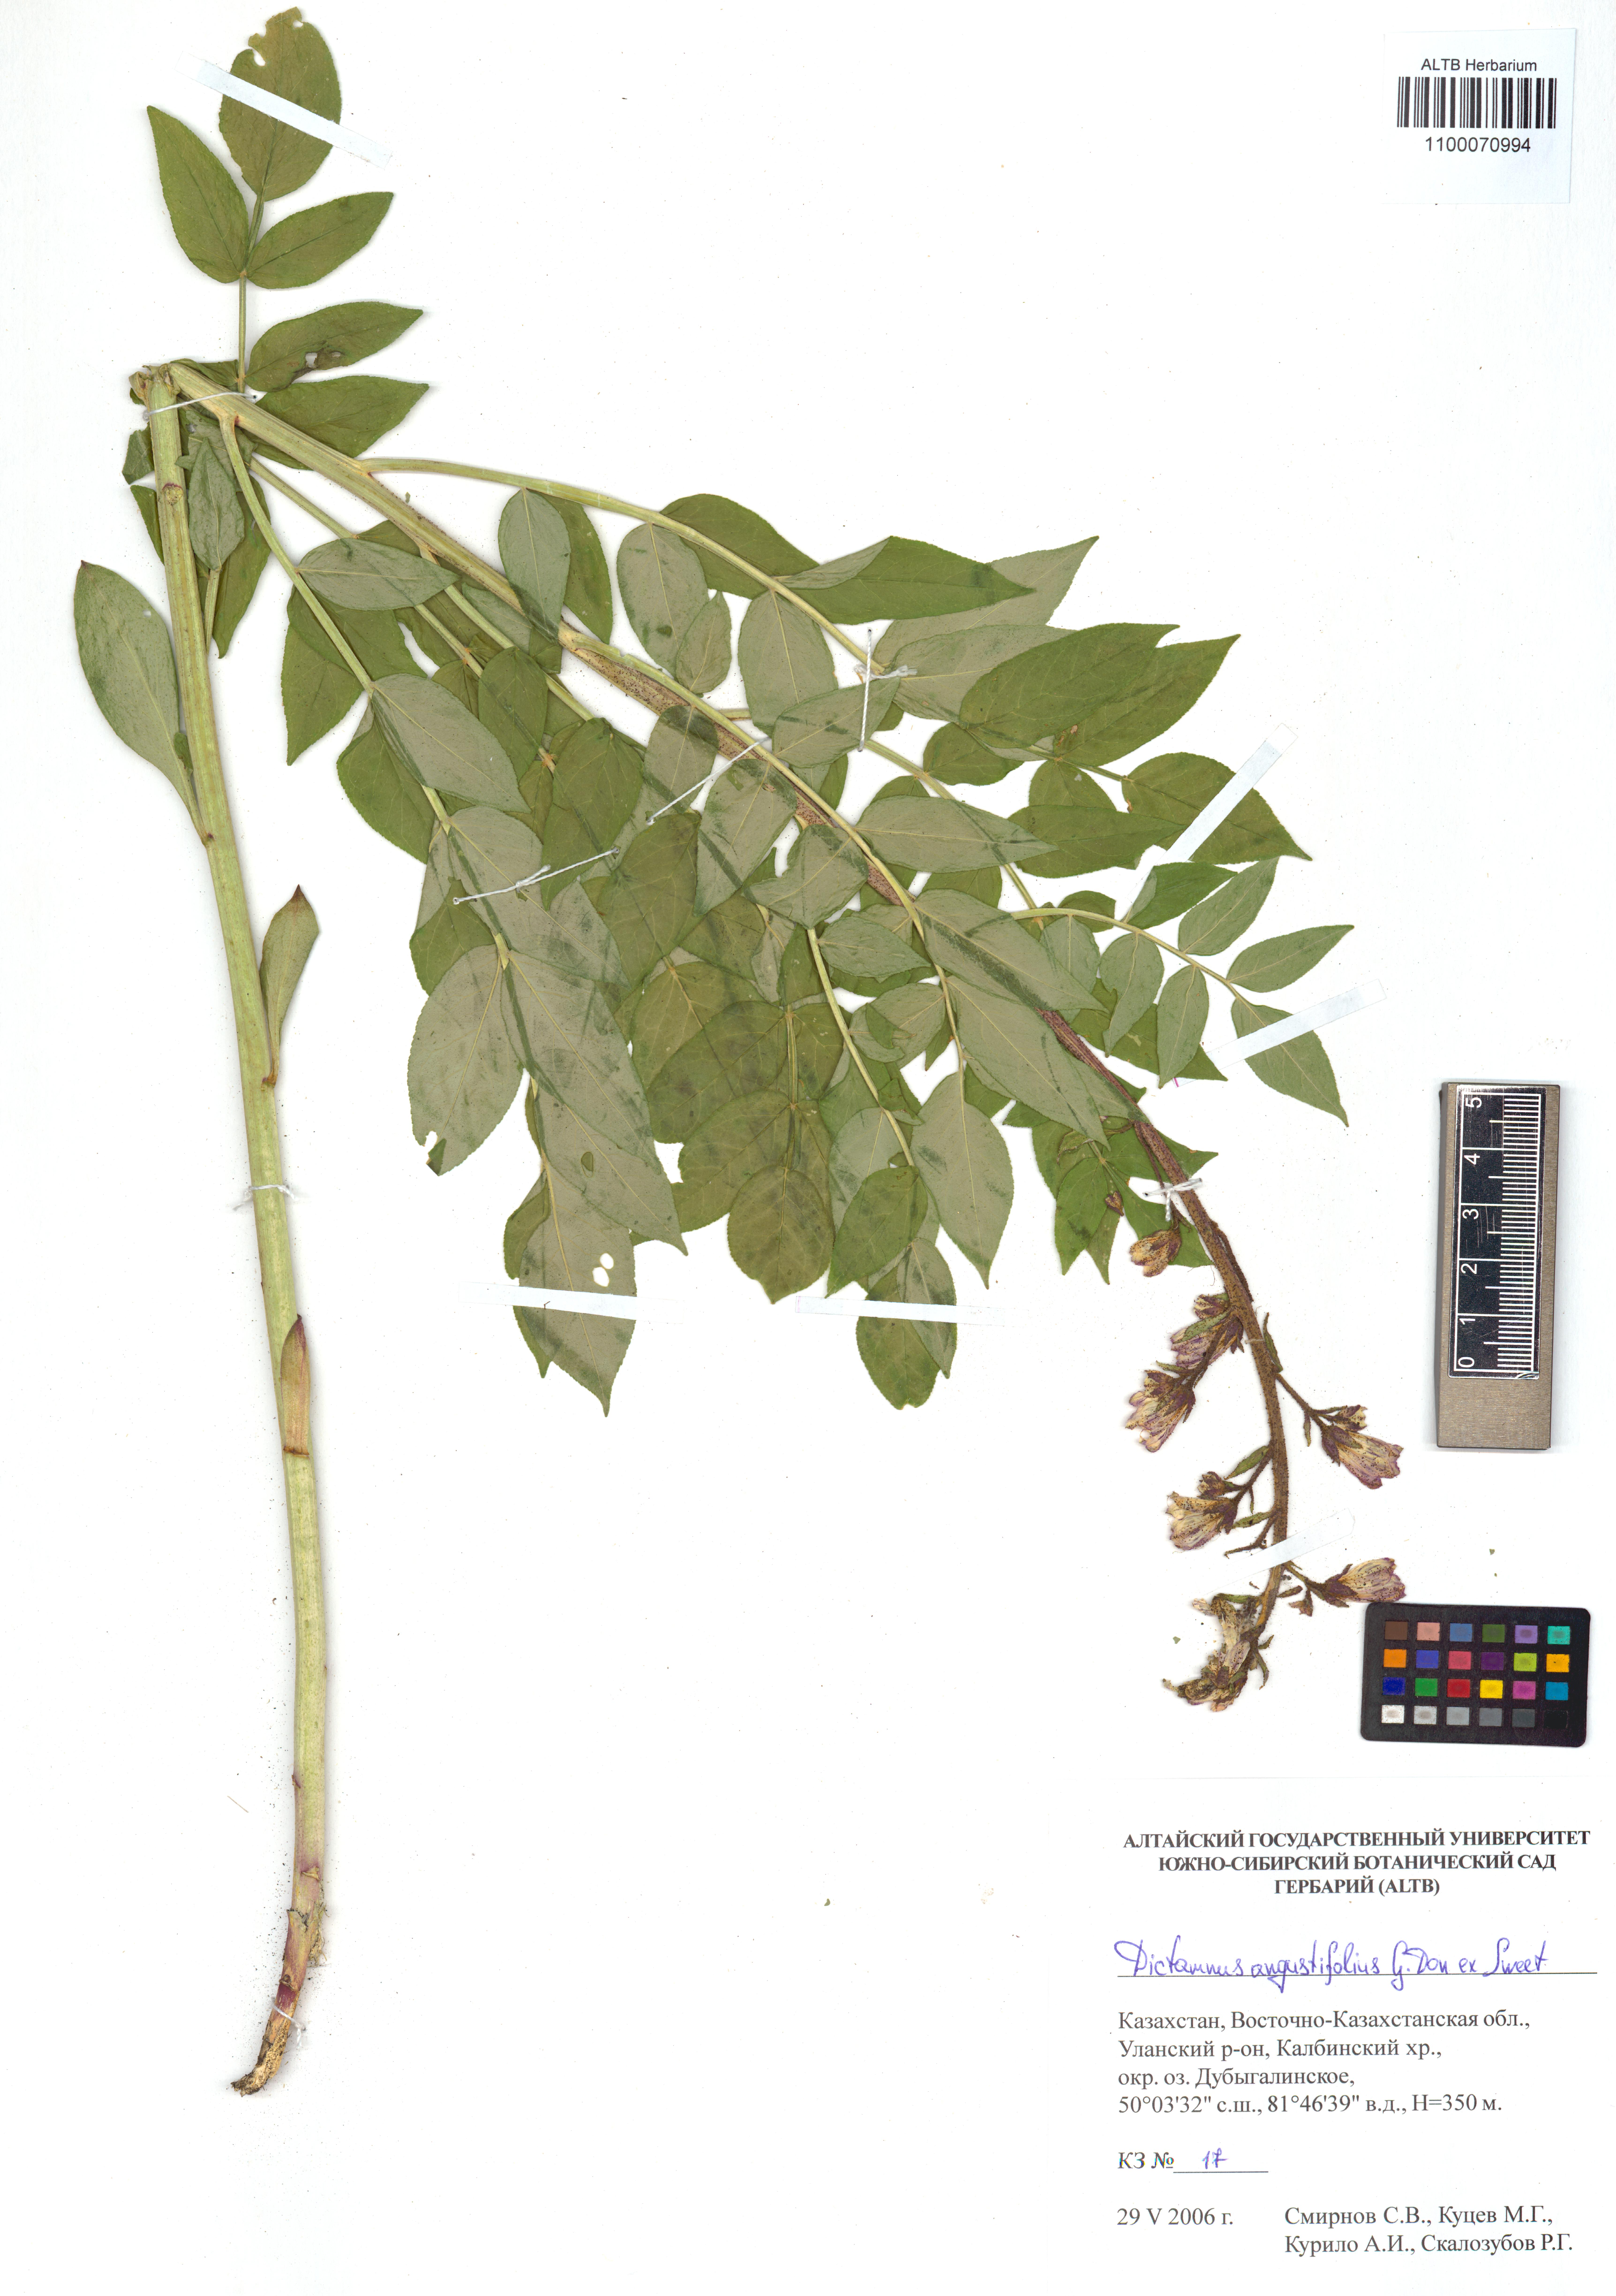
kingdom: Plantae
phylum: Tracheophyta
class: Magnoliopsida
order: Sapindales
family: Rutaceae
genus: Dictamnus
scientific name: Dictamnus albus
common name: Gasplant
